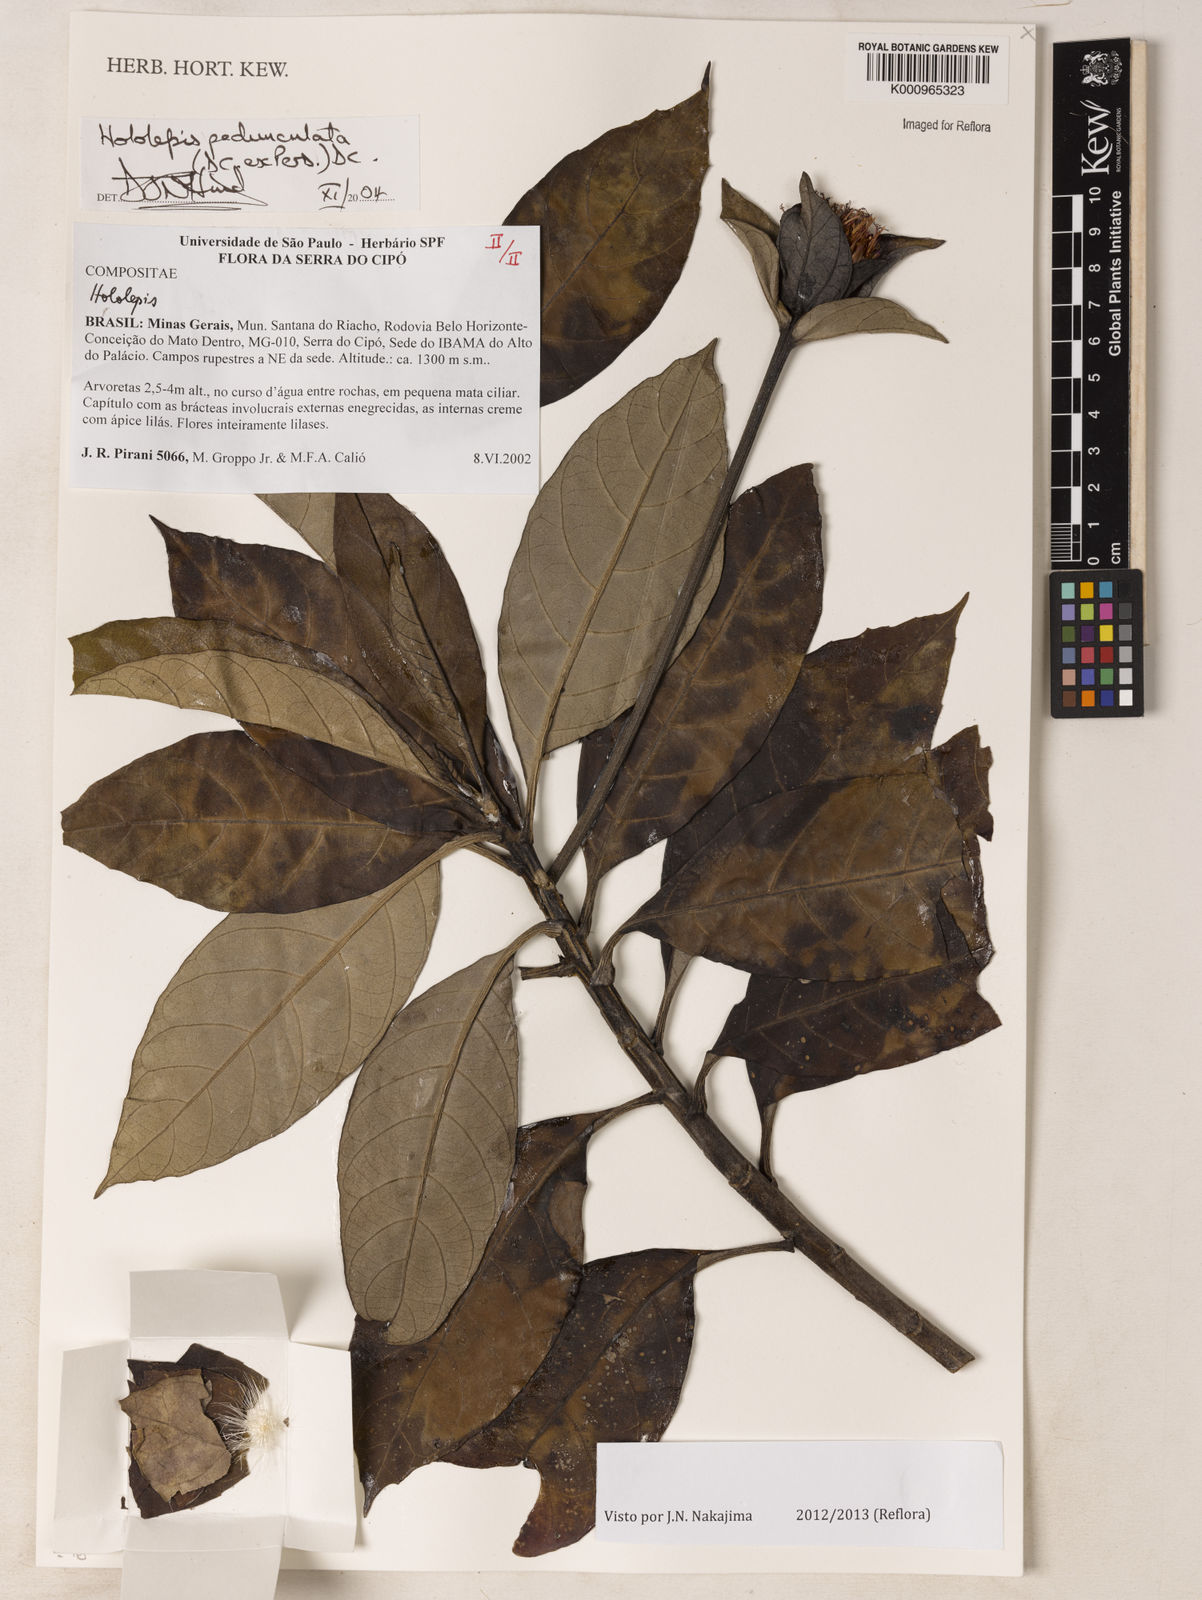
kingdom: Plantae
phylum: Tracheophyta
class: Magnoliopsida
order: Asterales
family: Asteraceae
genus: Hololepis
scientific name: Hololepis pedunculata
